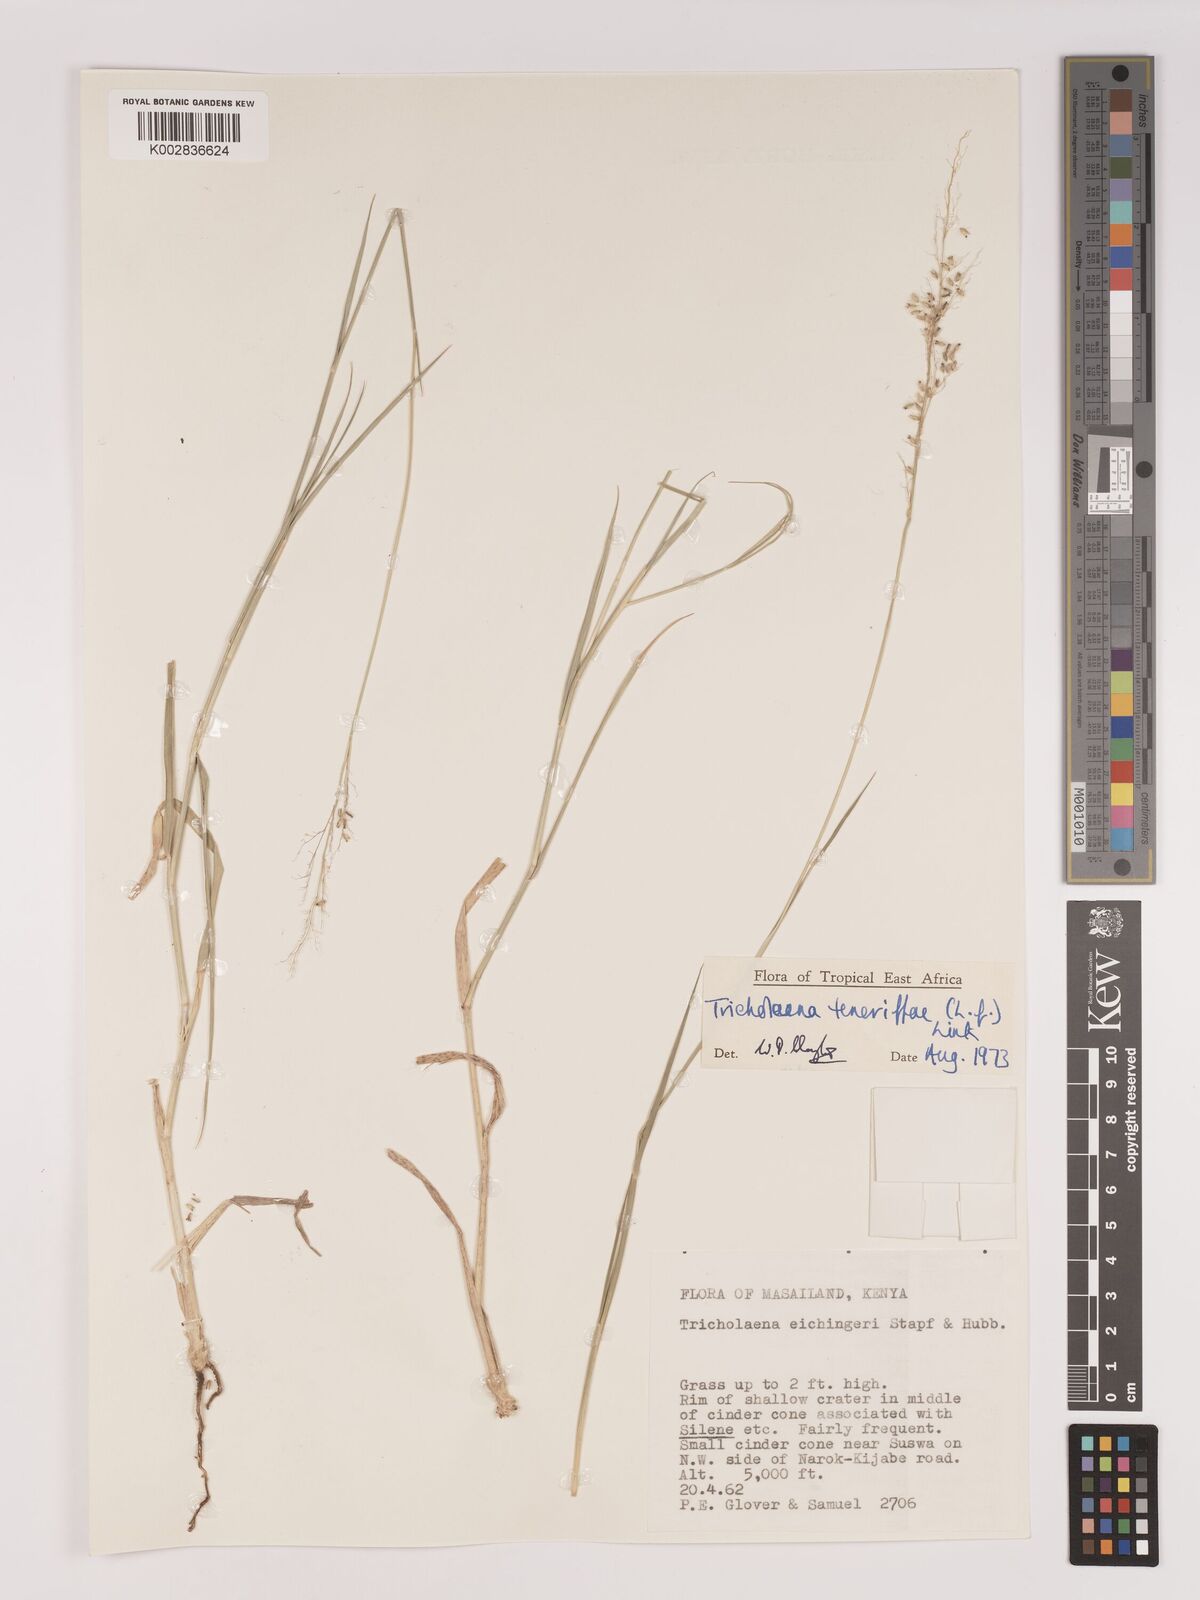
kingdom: Plantae
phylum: Tracheophyta
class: Liliopsida
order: Poales
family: Poaceae
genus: Tricholaena
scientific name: Tricholaena teneriffae
